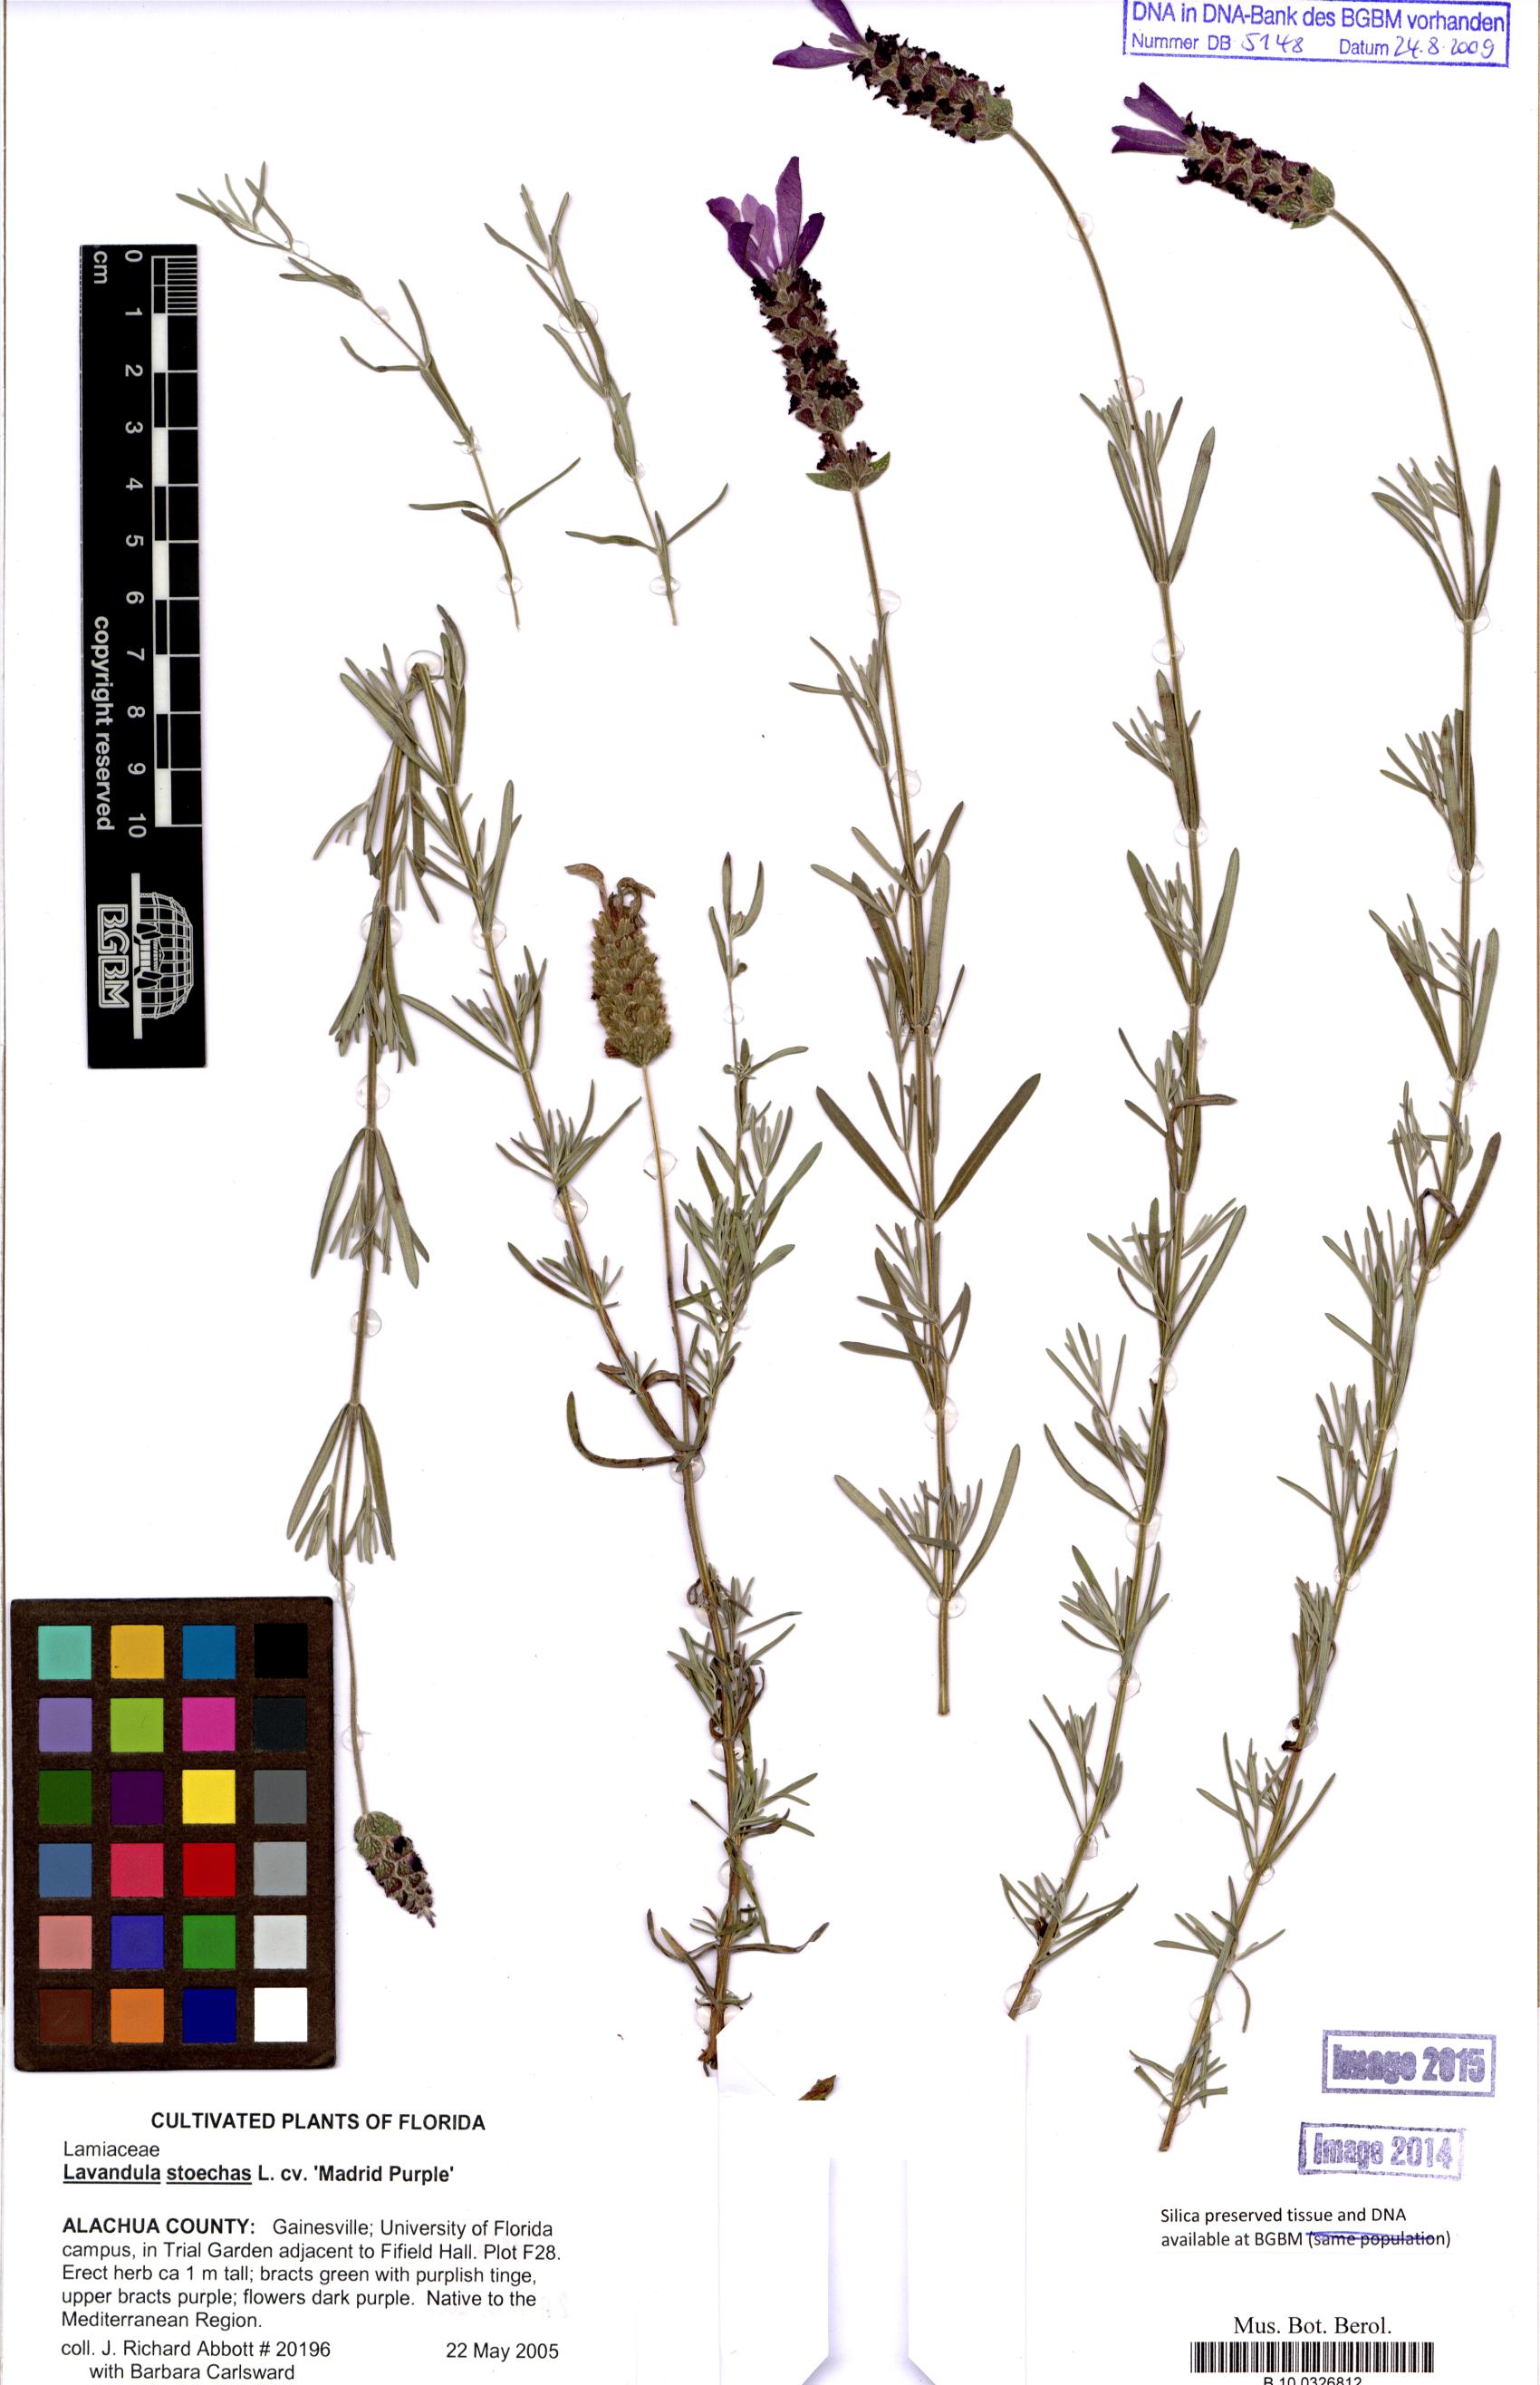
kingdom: Plantae
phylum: Tracheophyta
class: Magnoliopsida
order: Lamiales
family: Lamiaceae
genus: Lavandula
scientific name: Lavandula stoechas
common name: French lavender
